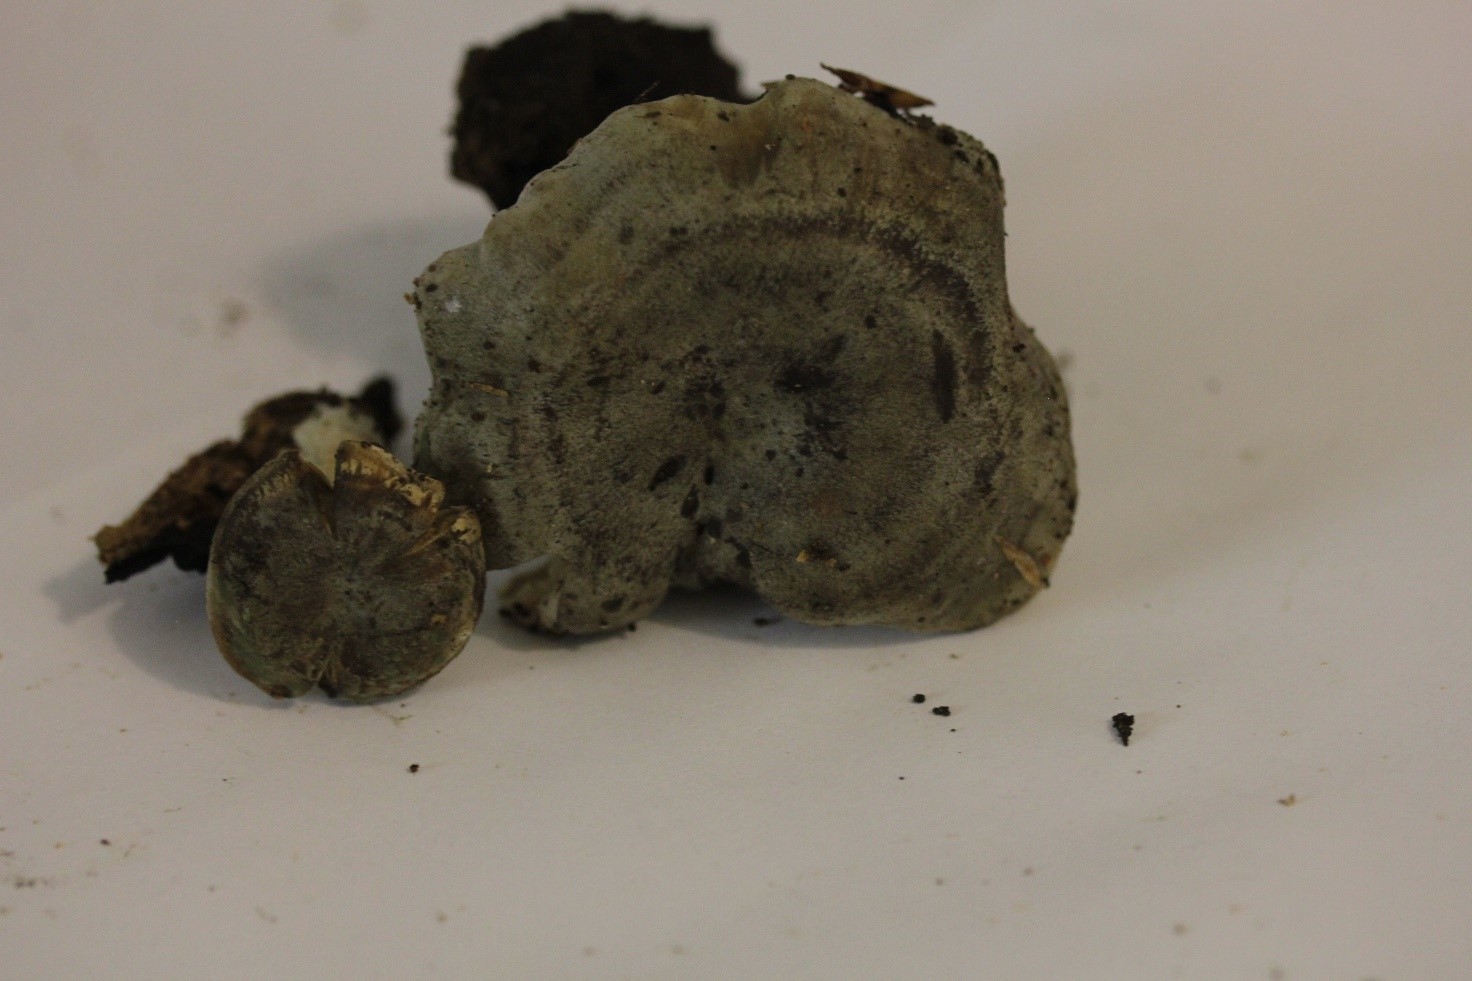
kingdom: Fungi
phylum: Basidiomycota
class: Agaricomycetes
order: Russulales
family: Russulaceae
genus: Lactarius
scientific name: Lactarius quietus
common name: ege-mælkehat
